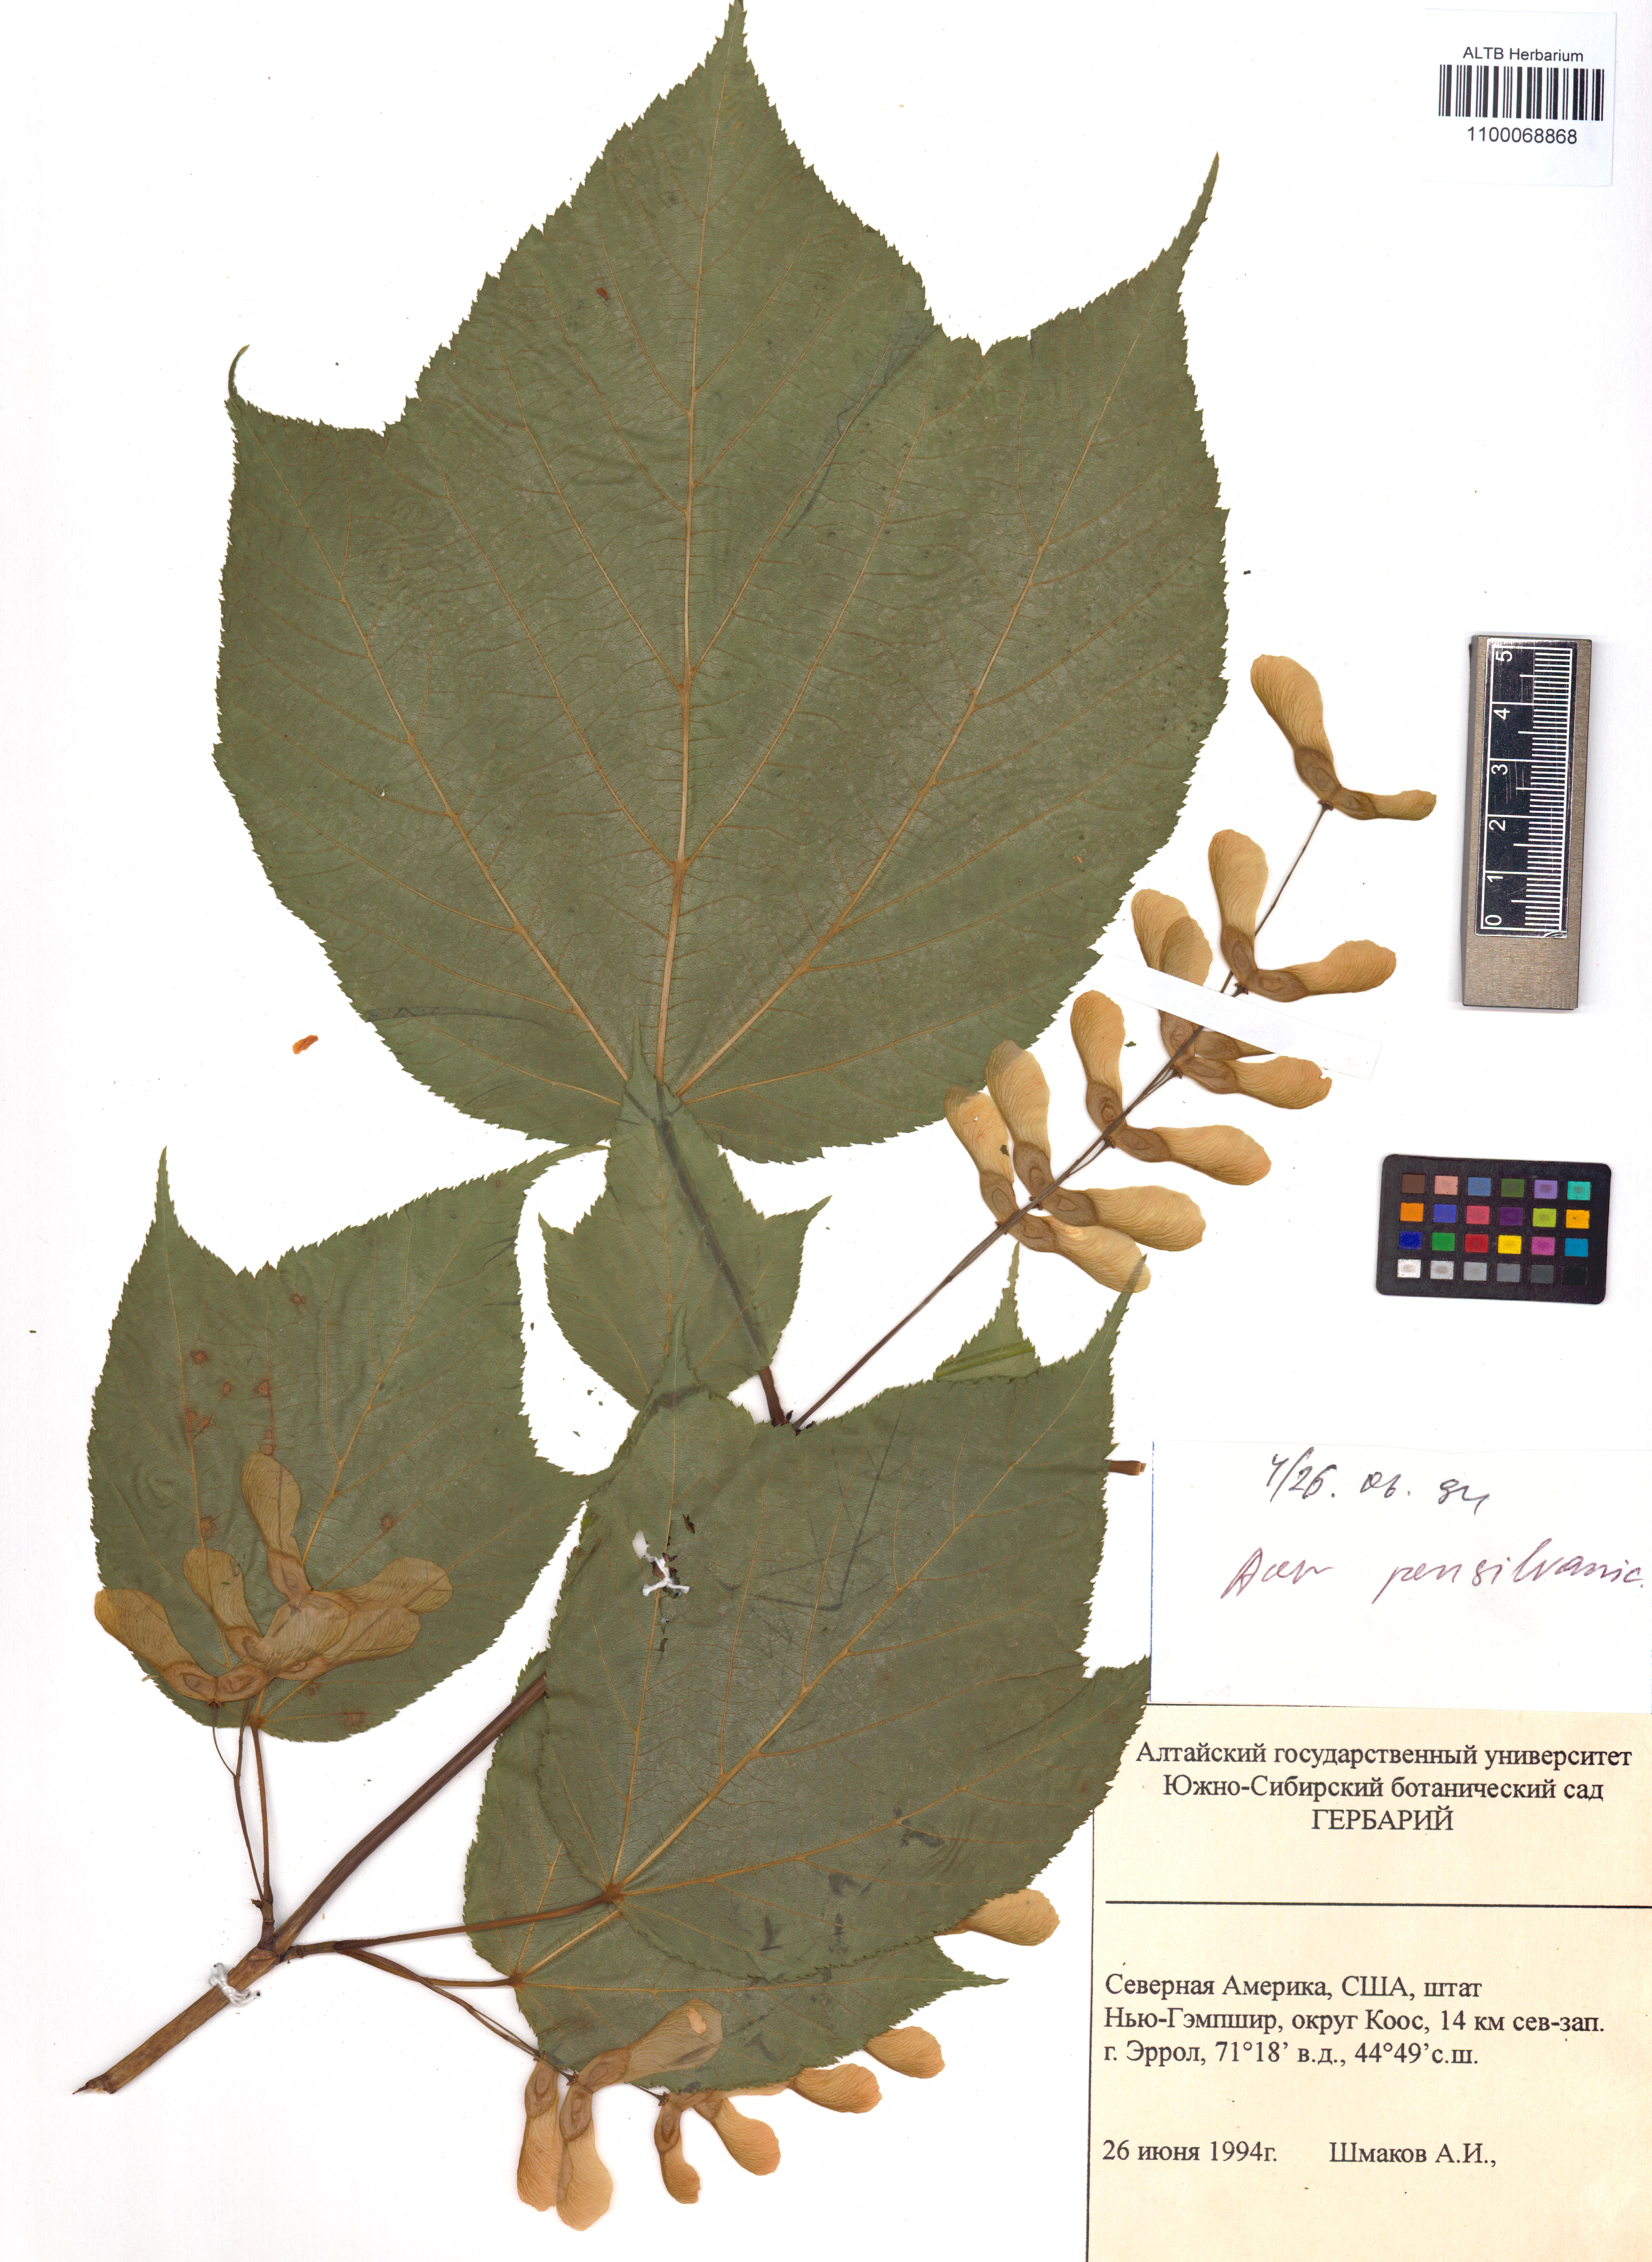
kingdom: Plantae
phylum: Tracheophyta
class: Magnoliopsida
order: Sapindales
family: Sapindaceae
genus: Acer
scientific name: Acer pensylvanicum
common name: Moosewood
